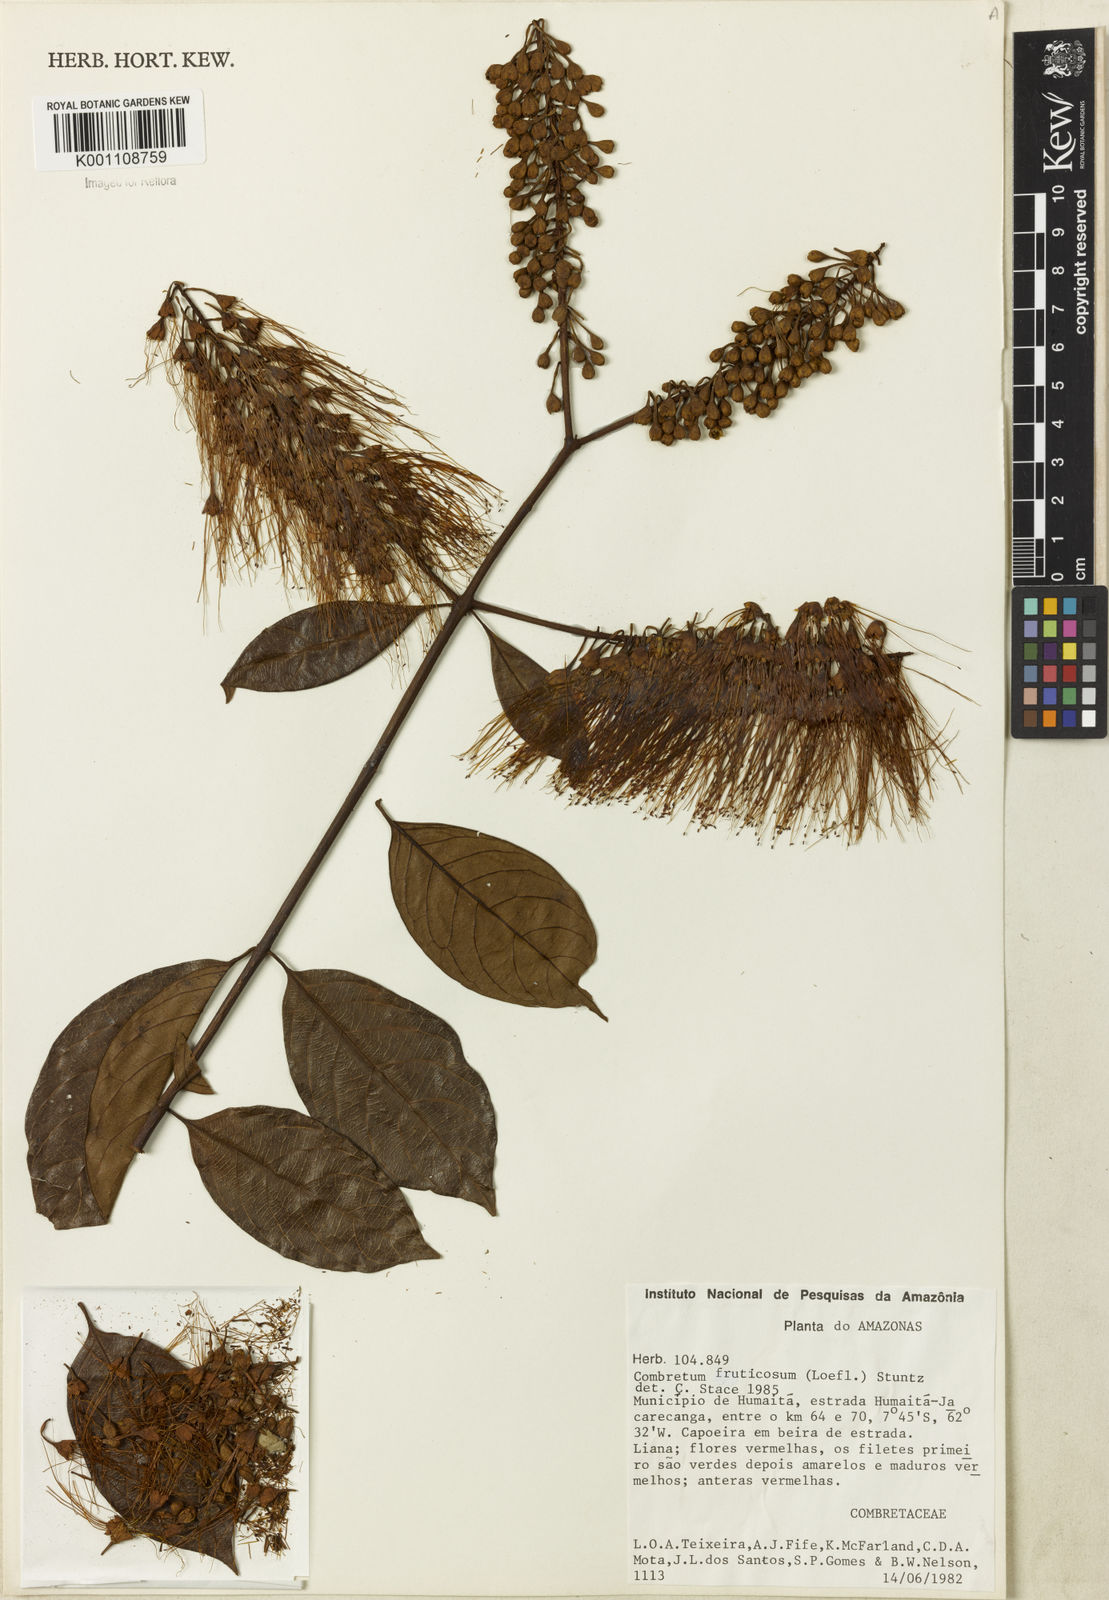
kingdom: Plantae
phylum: Tracheophyta
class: Magnoliopsida
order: Myrtales
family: Combretaceae
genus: Combretum
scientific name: Combretum fruticosum
